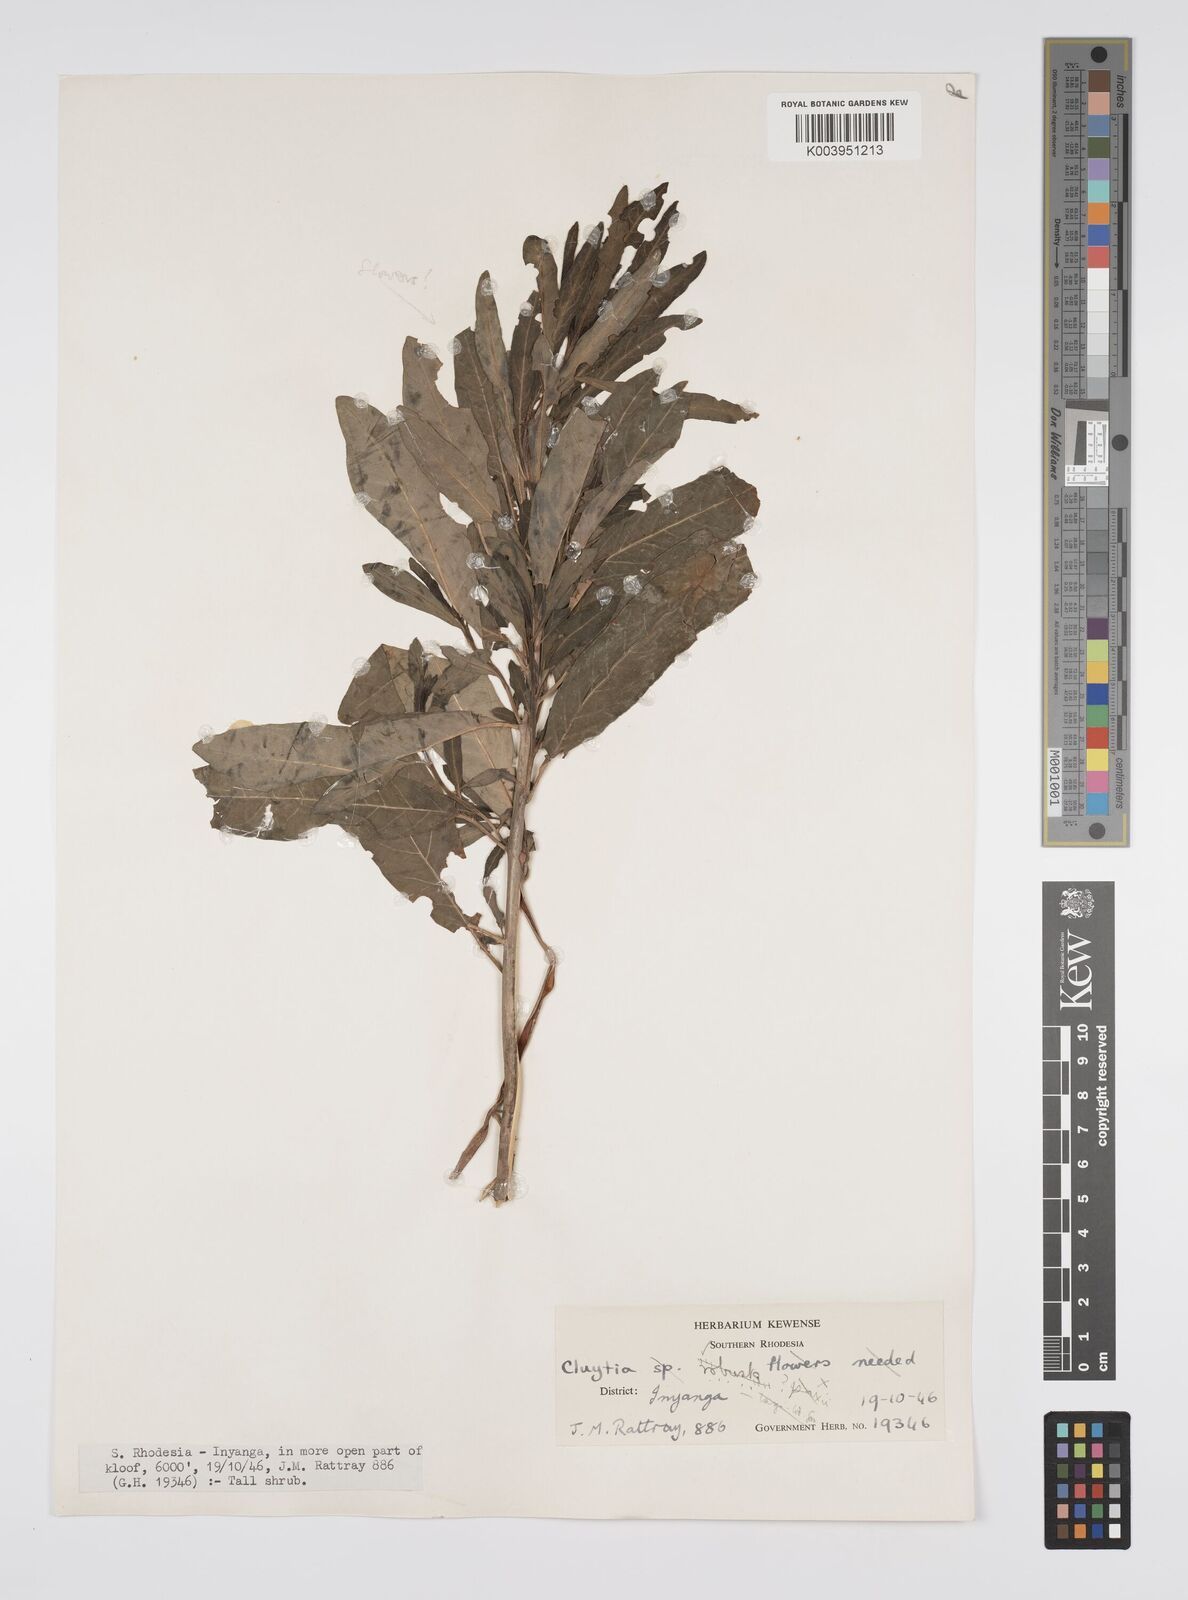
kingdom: Plantae
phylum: Tracheophyta
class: Magnoliopsida
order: Malpighiales
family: Peraceae
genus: Clutia
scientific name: Clutia kilimandscharica
